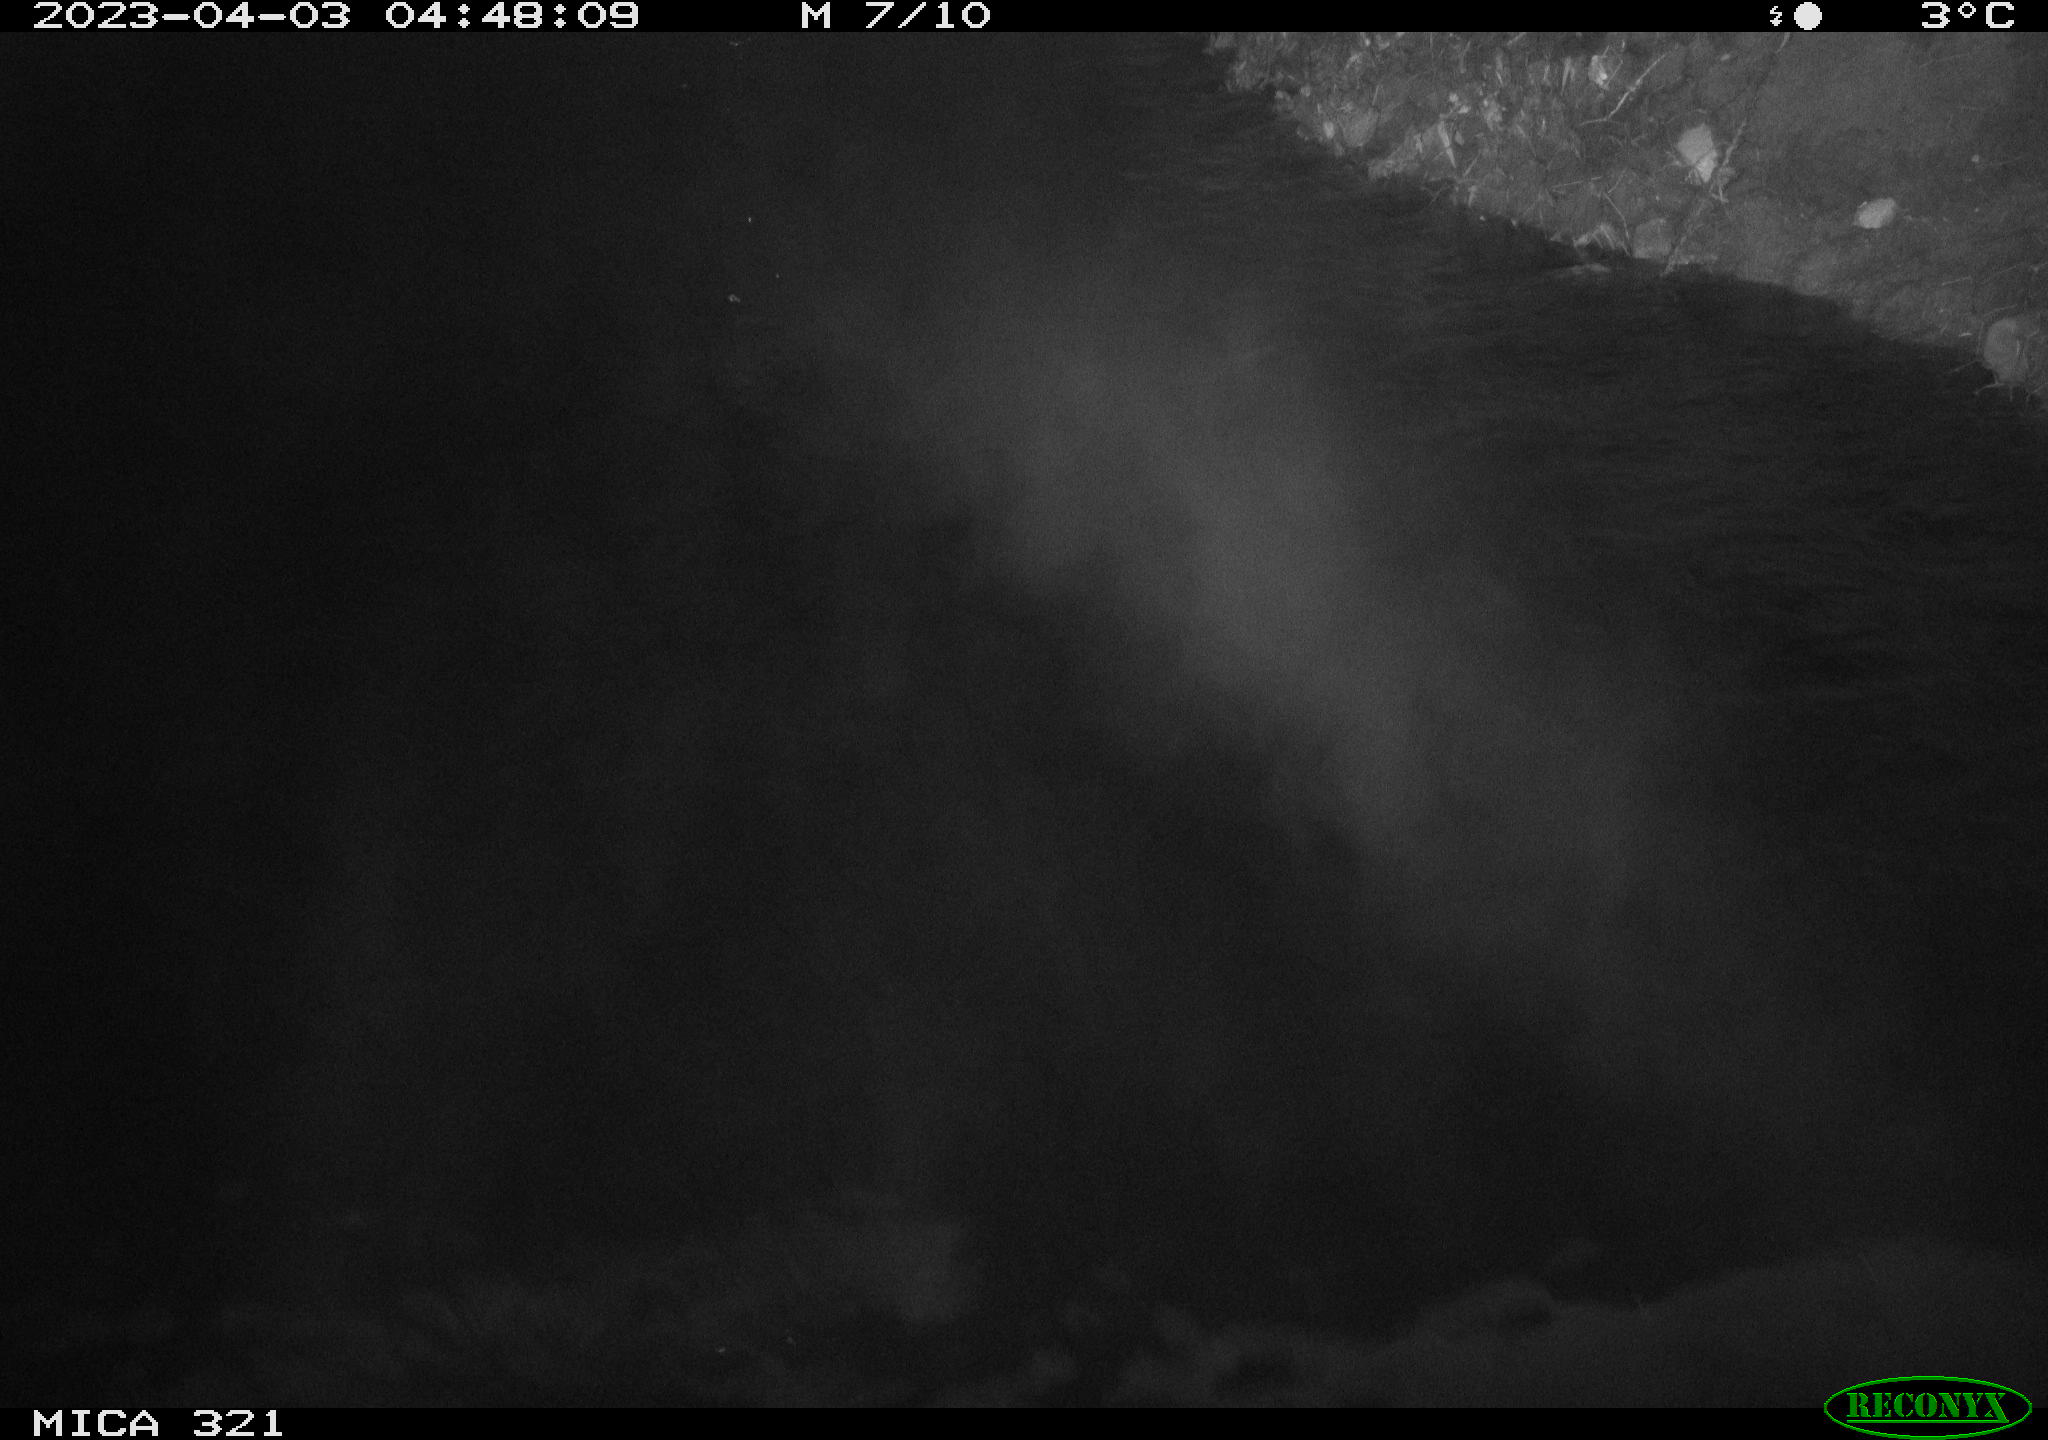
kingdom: Animalia
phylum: Chordata
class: Aves
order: Anseriformes
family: Anatidae
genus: Anas
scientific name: Anas
